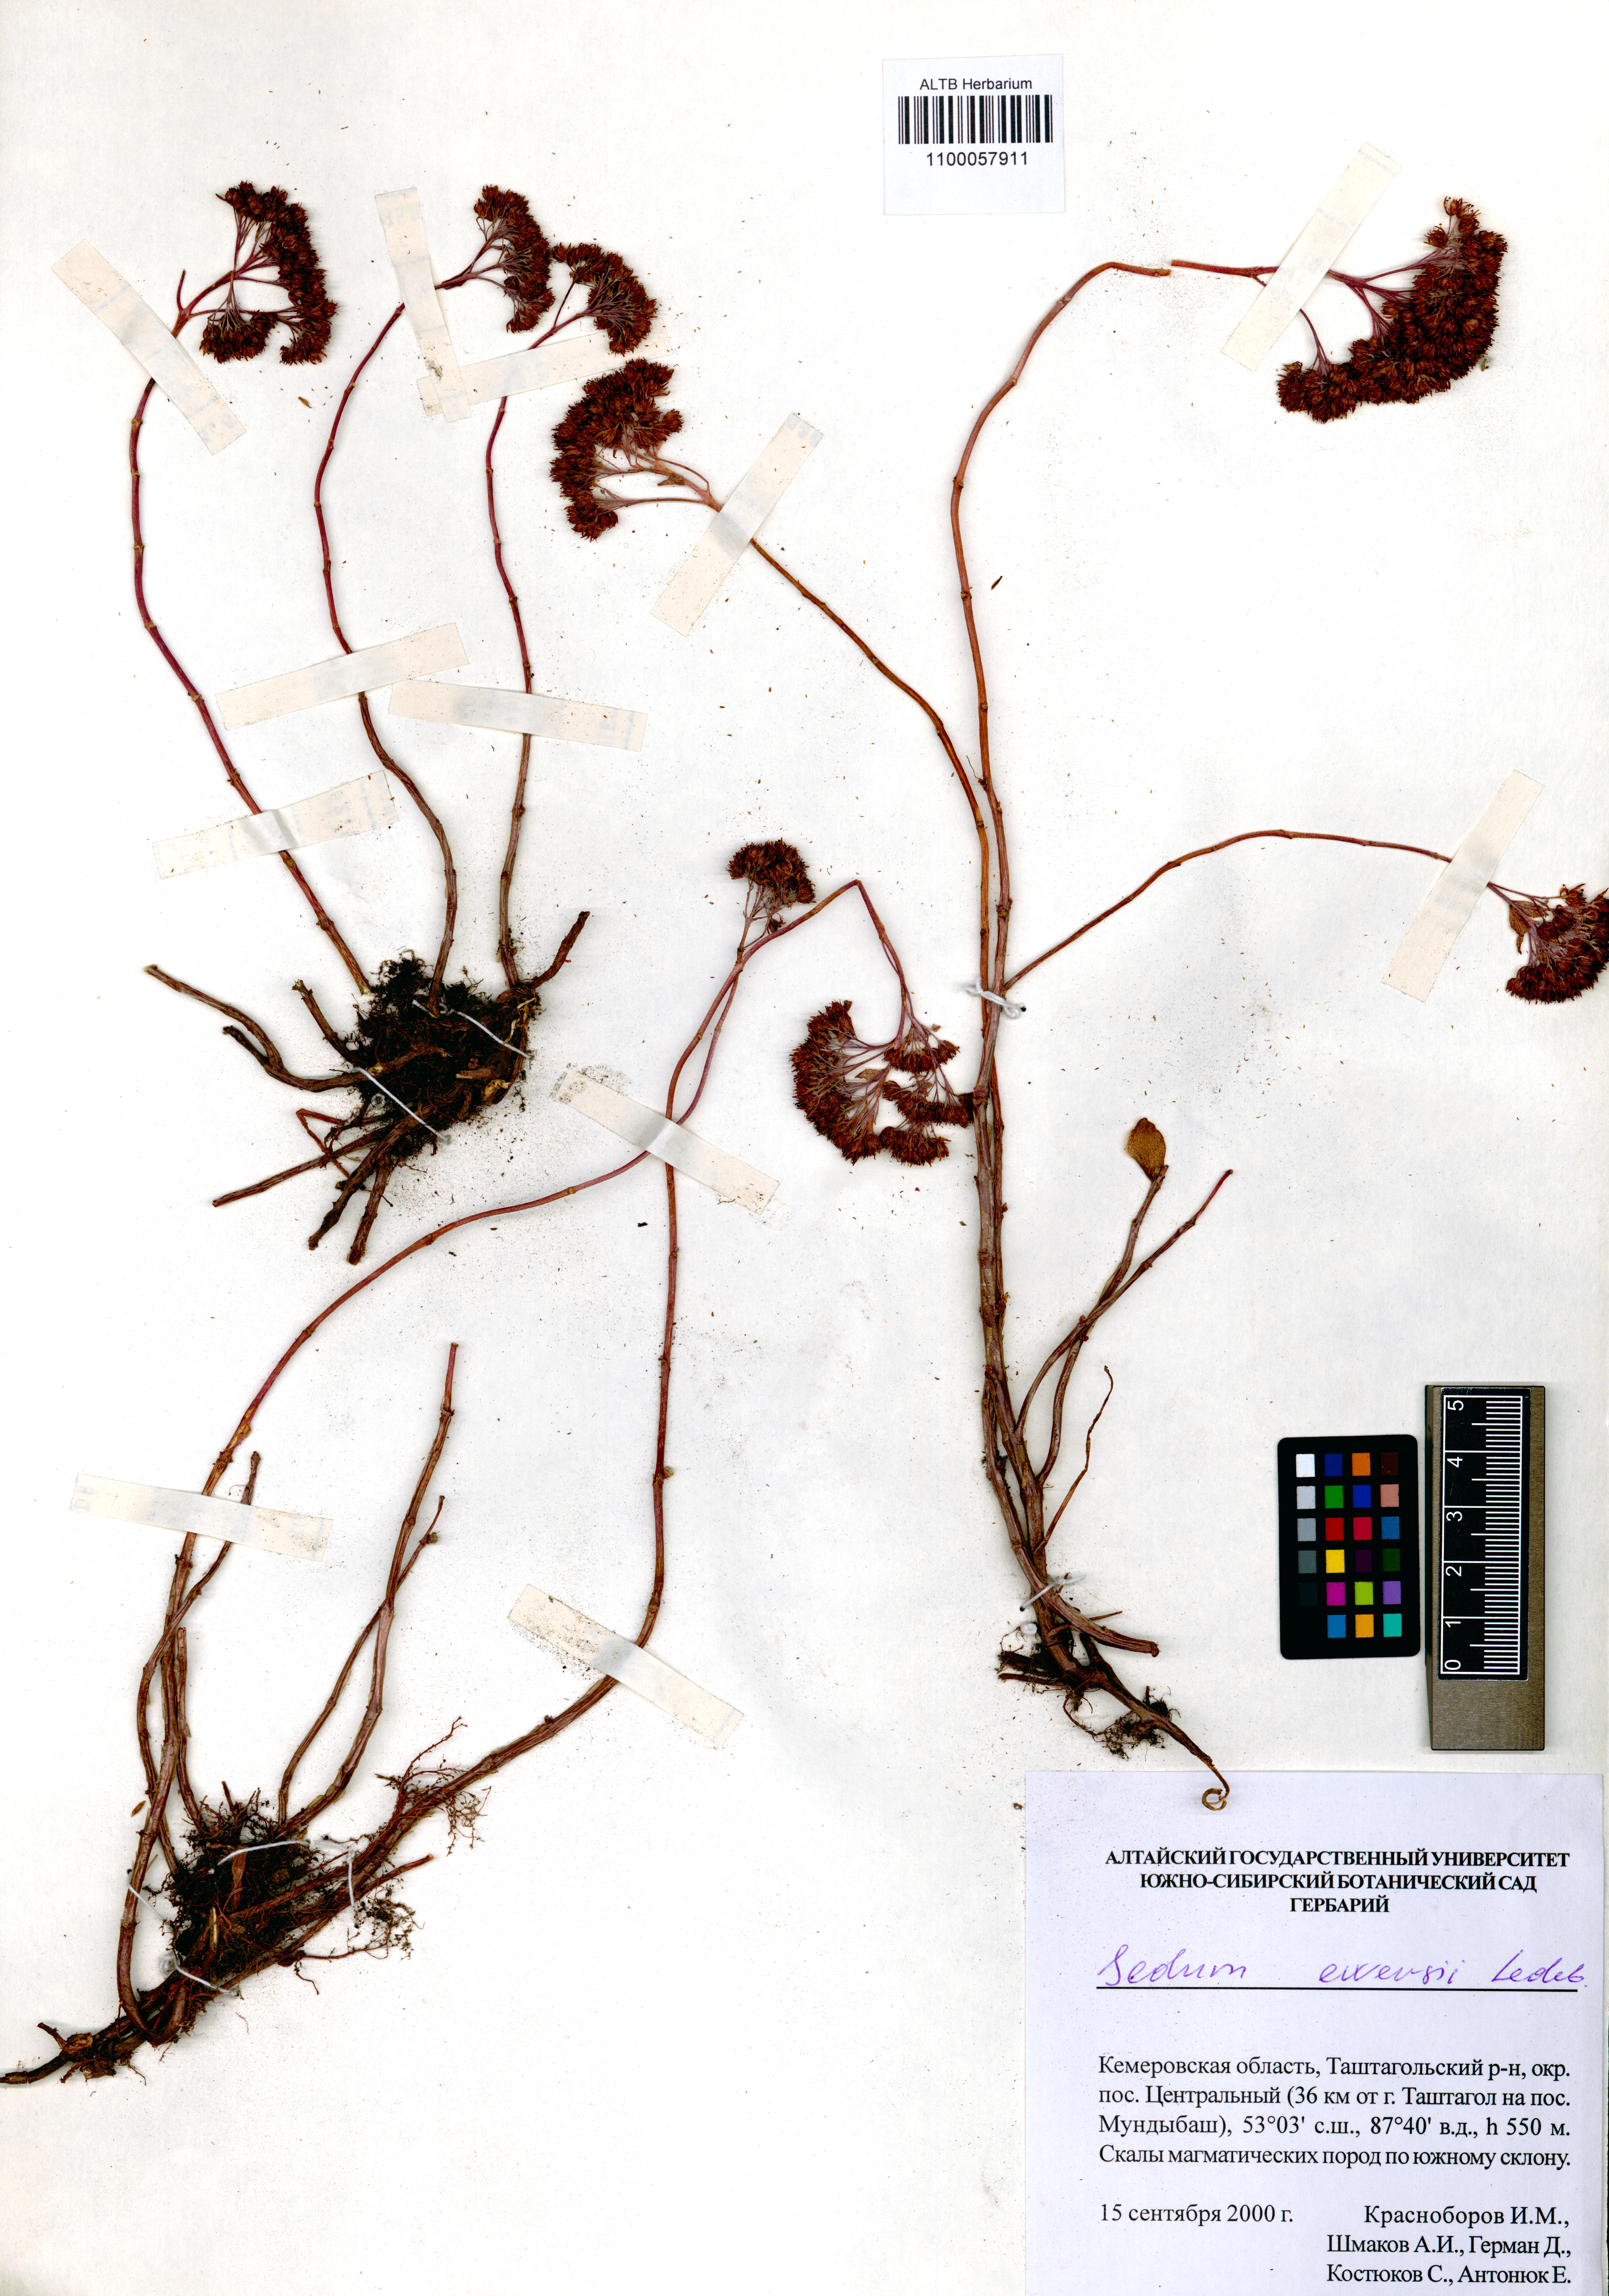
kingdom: Plantae
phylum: Tracheophyta
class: Magnoliopsida
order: Saxifragales
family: Crassulaceae
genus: Hylotelephium
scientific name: Hylotelephium ewersii
